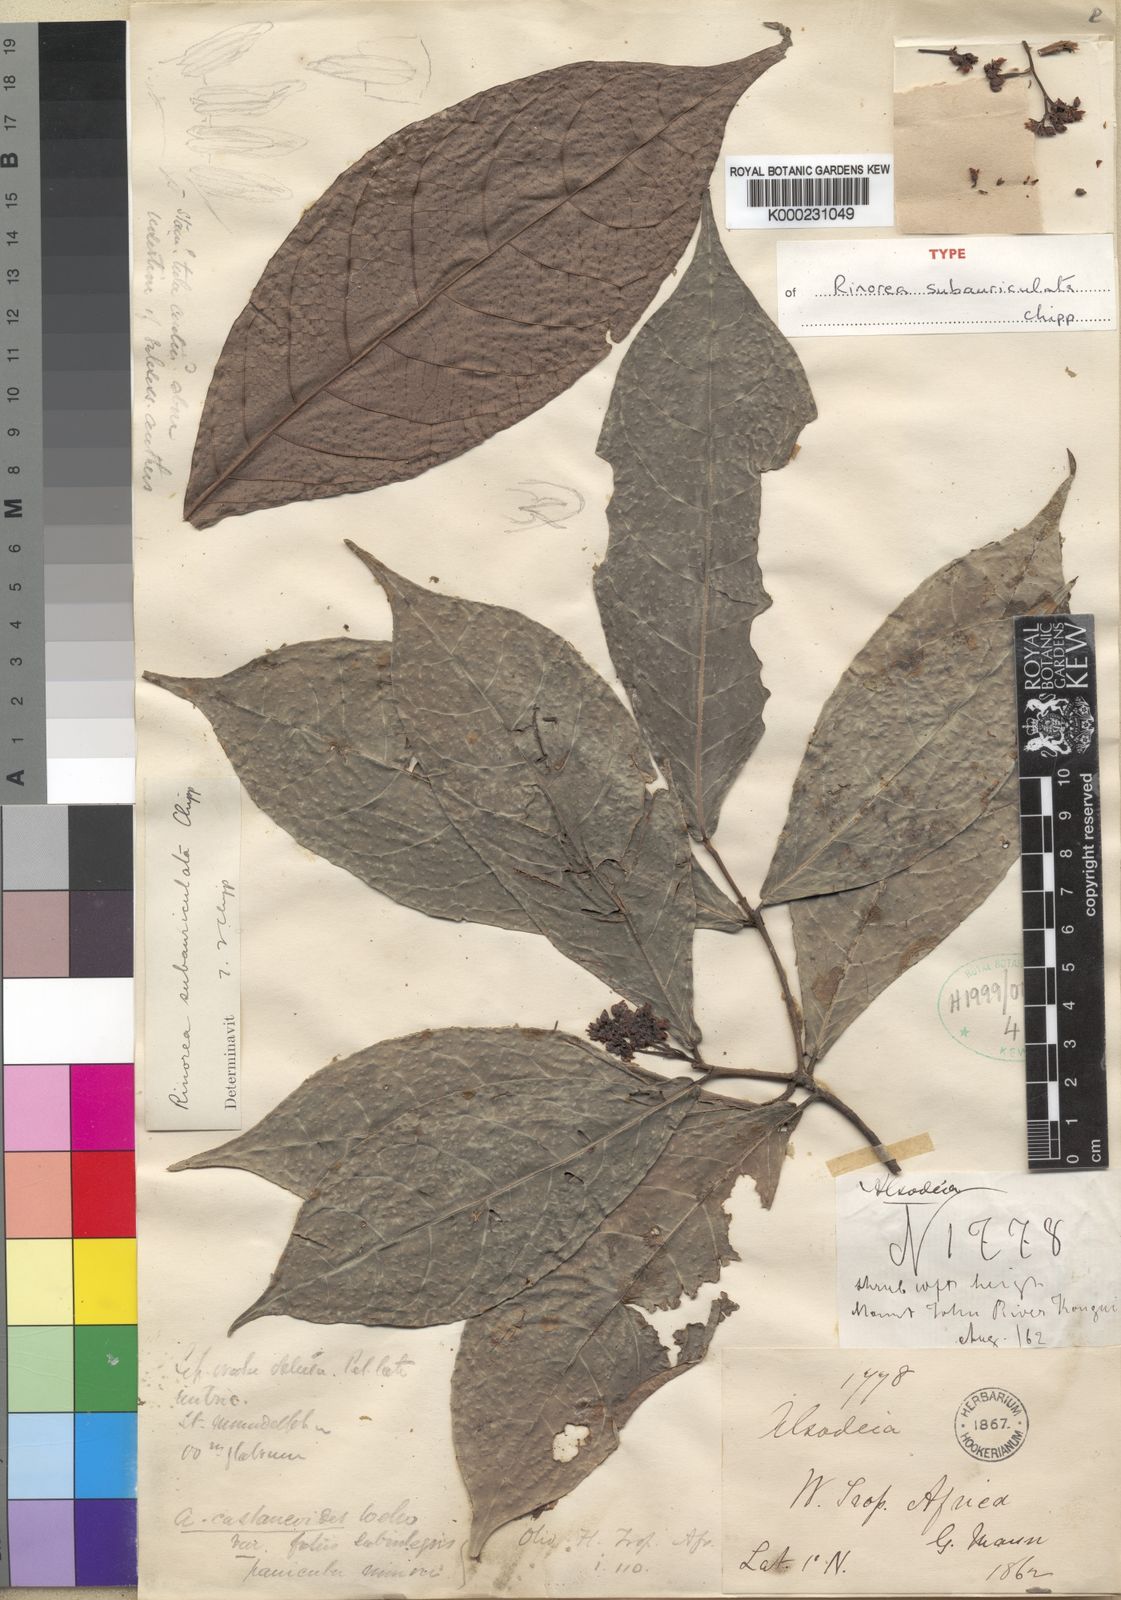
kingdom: Plantae
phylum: Tracheophyta
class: Magnoliopsida
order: Malpighiales
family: Violaceae
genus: Rinorea
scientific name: Rinorea subauriculata
